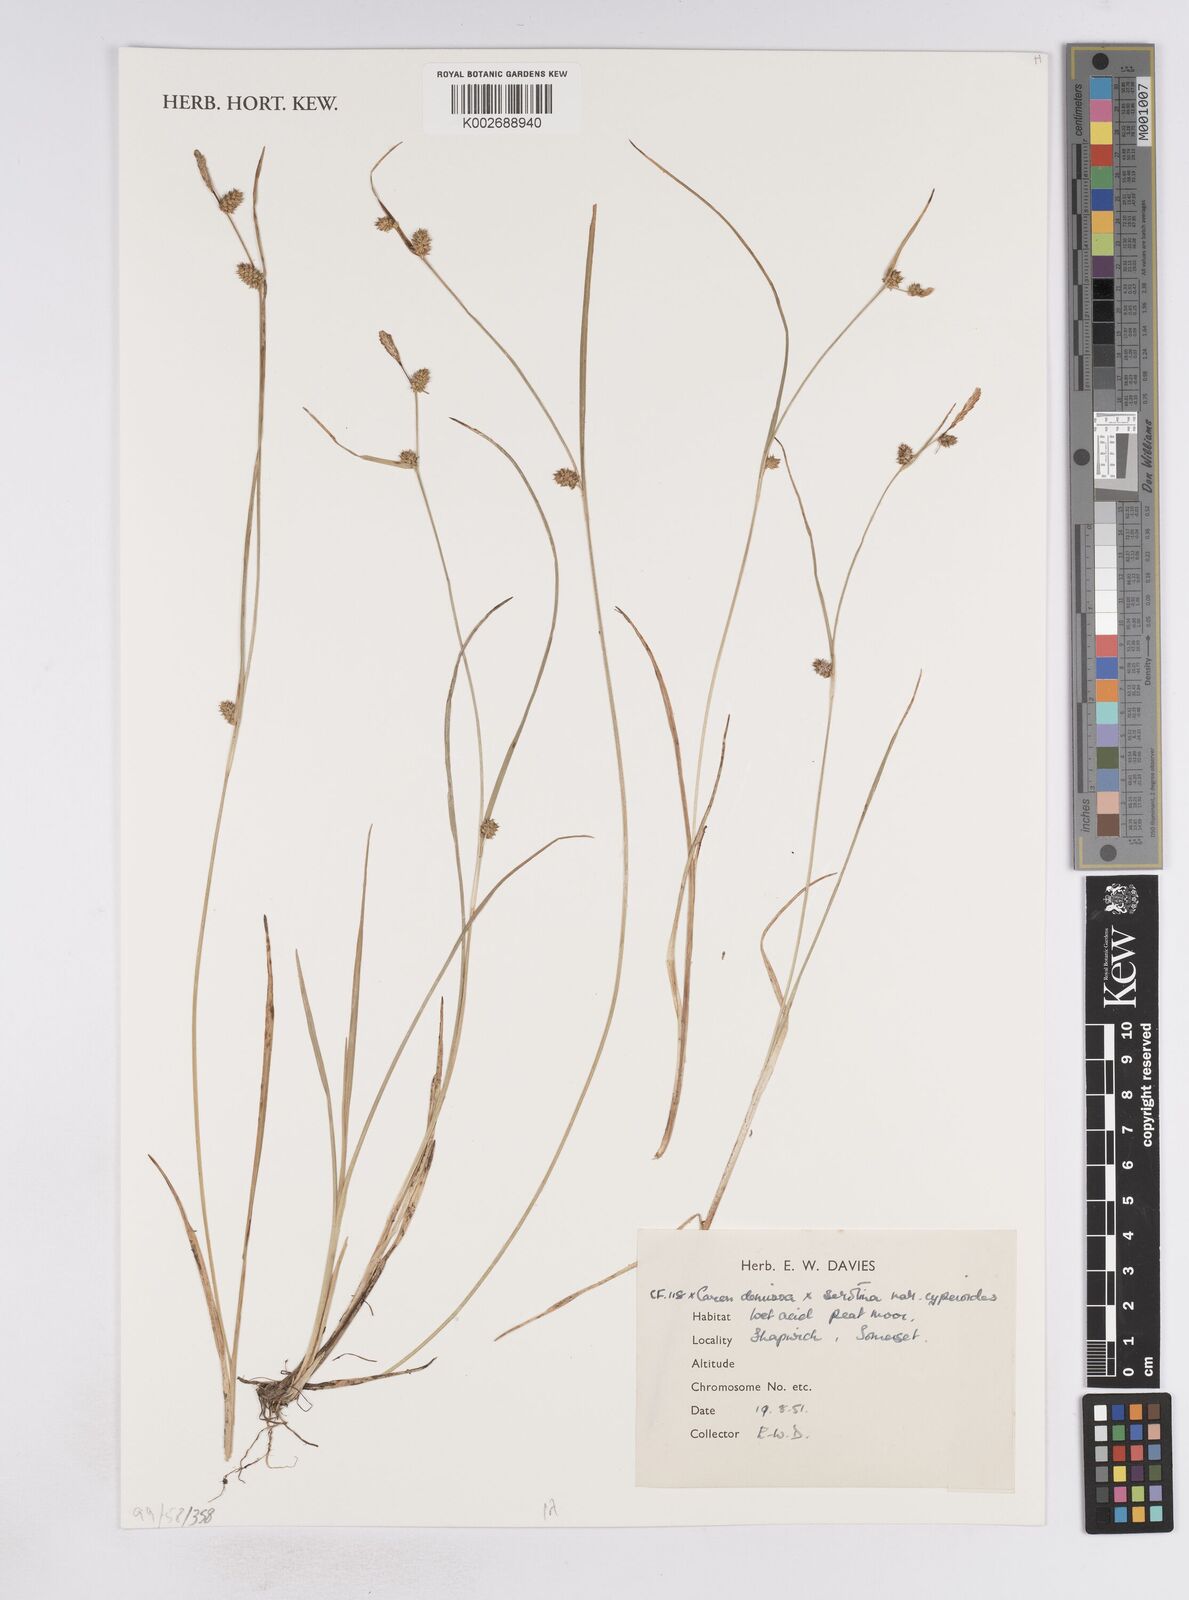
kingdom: Plantae
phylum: Tracheophyta
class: Liliopsida
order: Poales
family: Cyperaceae
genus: Carex
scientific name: Carex demissa
